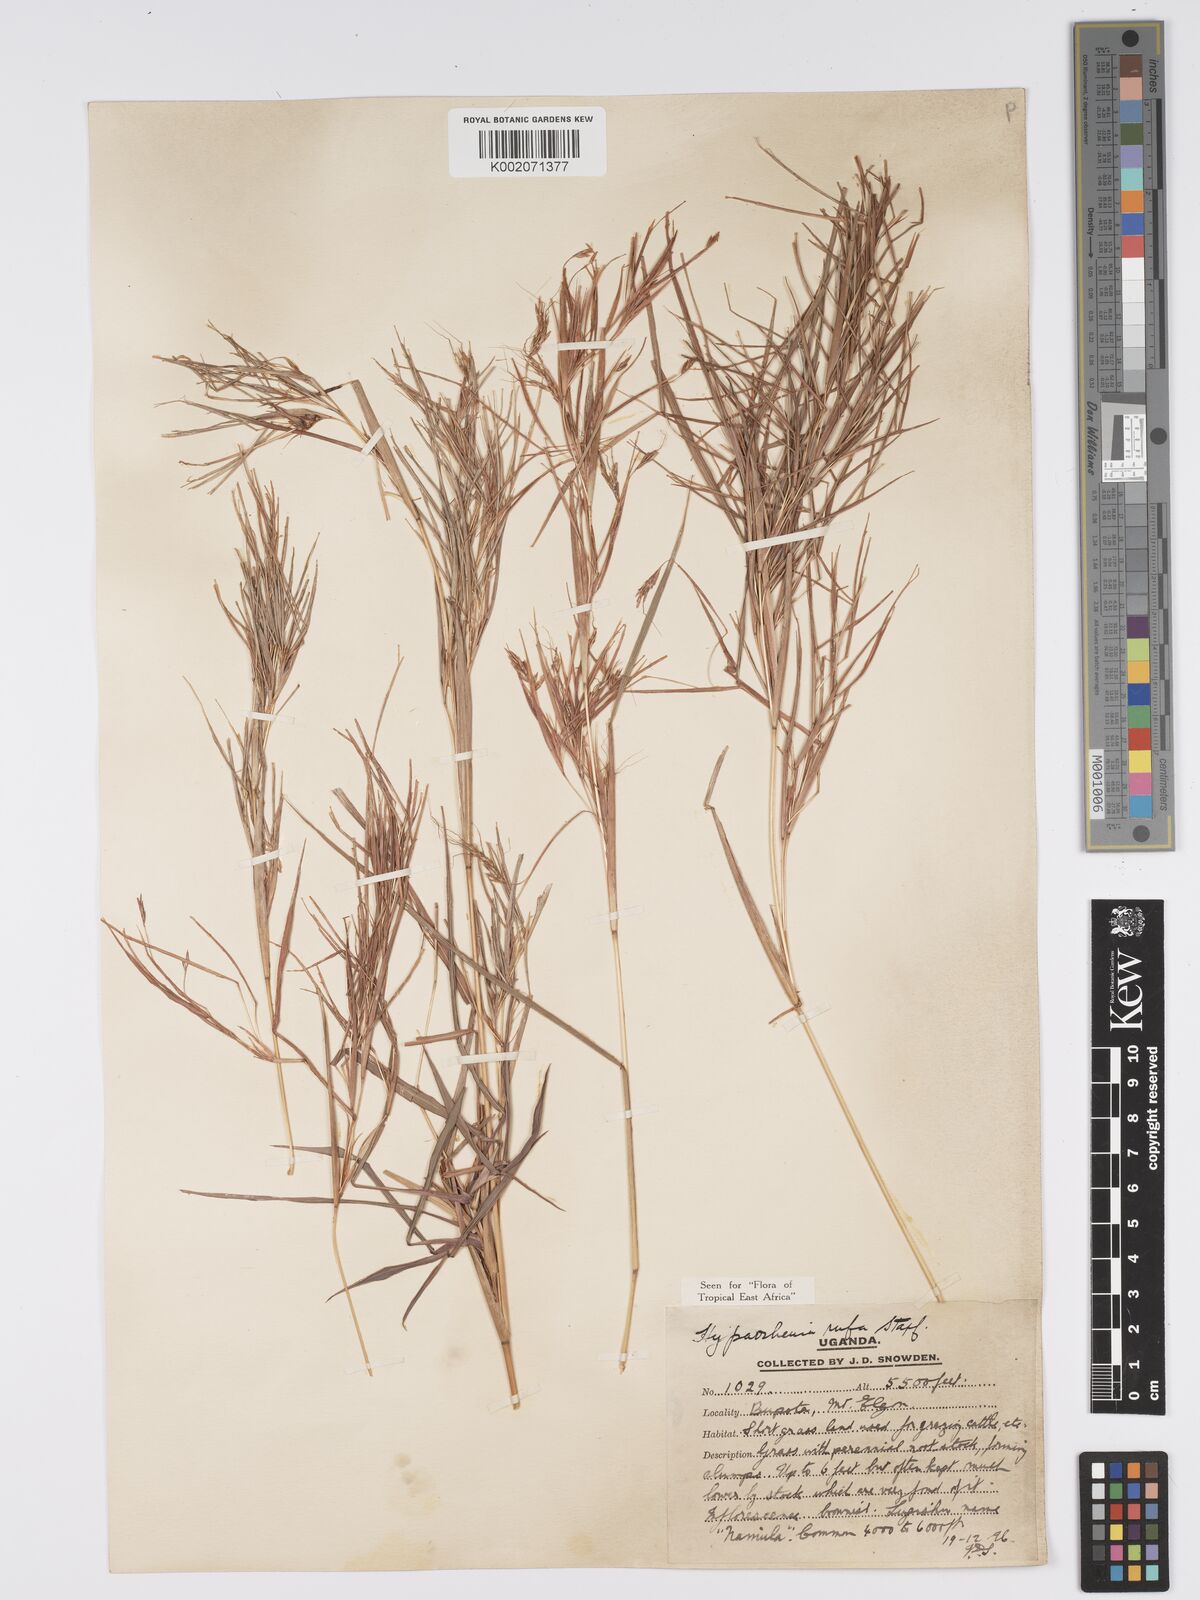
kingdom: Plantae
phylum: Tracheophyta
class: Liliopsida
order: Poales
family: Poaceae
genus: Hyparrhenia
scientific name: Hyparrhenia rufa
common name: Jaraguagrass
